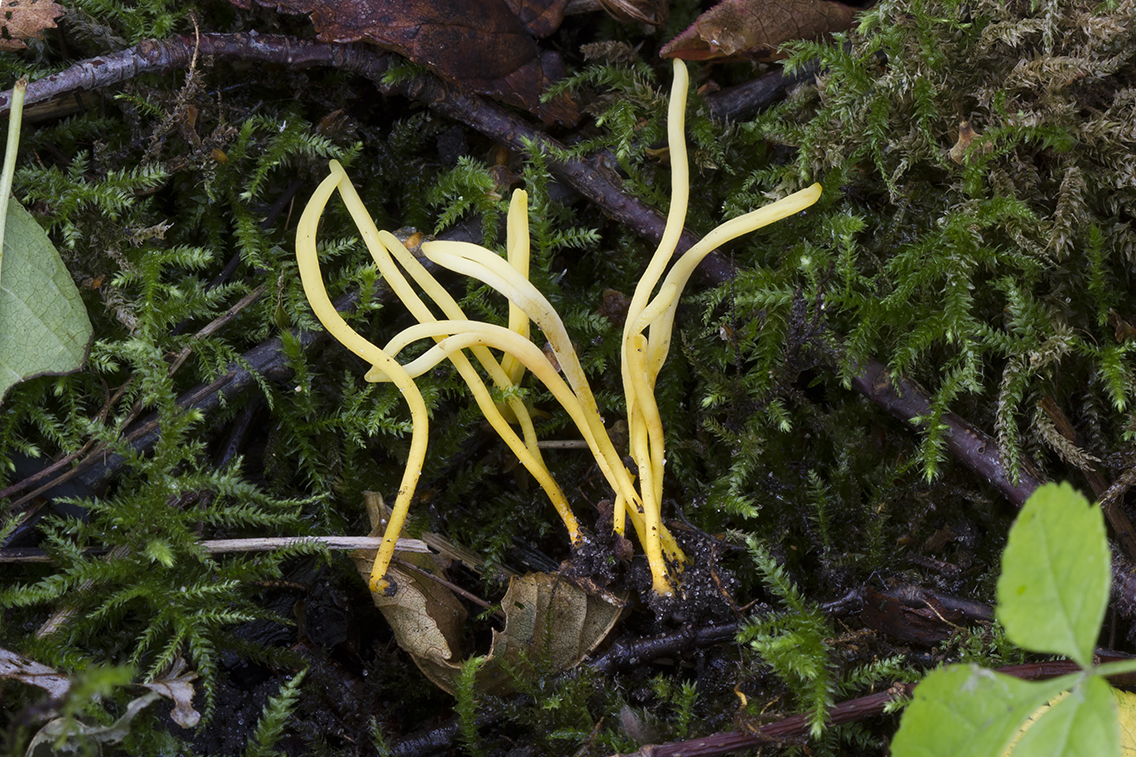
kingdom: Fungi
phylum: Basidiomycota
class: Agaricomycetes
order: Agaricales
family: Clavariaceae
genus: Clavulinopsis
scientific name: Clavulinopsis helvola
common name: orangegul køllesvamp
